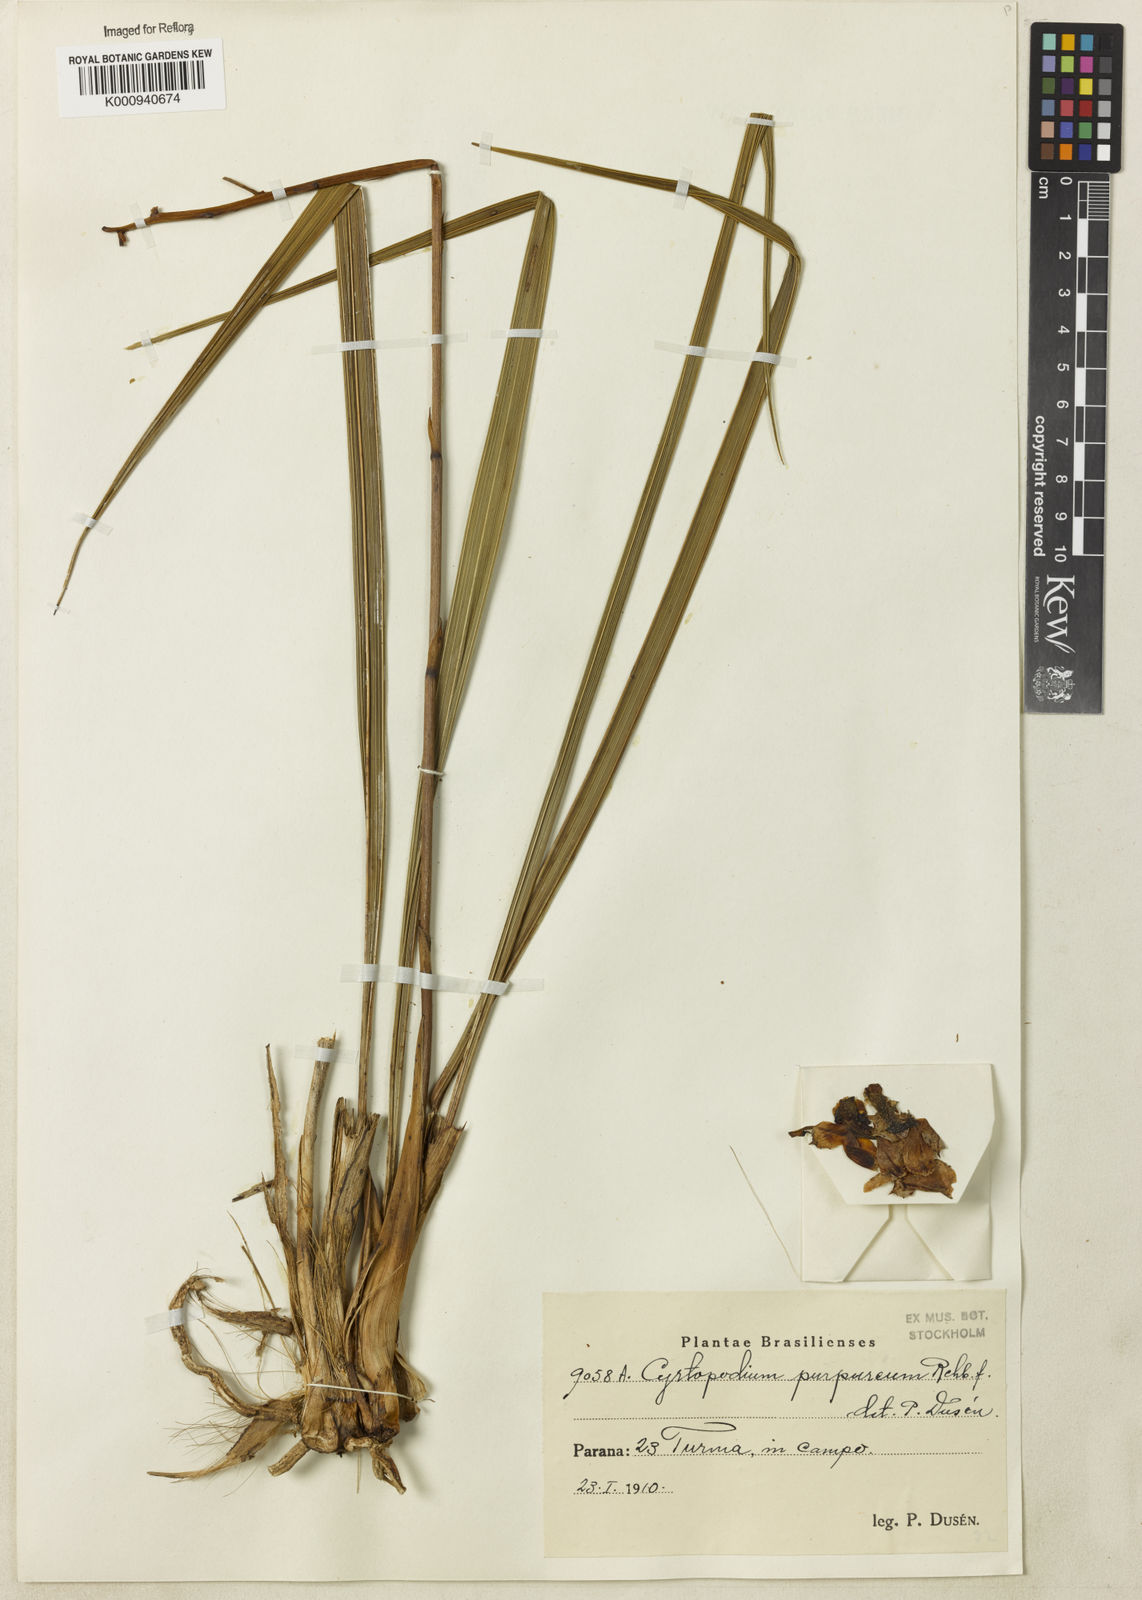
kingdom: Plantae
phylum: Tracheophyta
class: Liliopsida
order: Asparagales
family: Orchidaceae
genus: Cyrtopodium
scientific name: Cyrtopodium brandonianum
